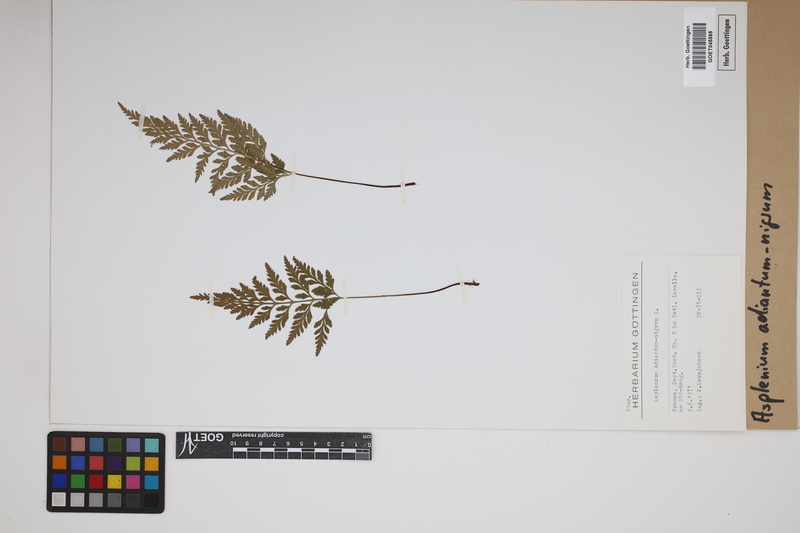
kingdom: Plantae
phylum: Tracheophyta
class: Polypodiopsida
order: Polypodiales
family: Aspleniaceae
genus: Asplenium
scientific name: Asplenium adiantum-nigrum
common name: Black spleenwort
